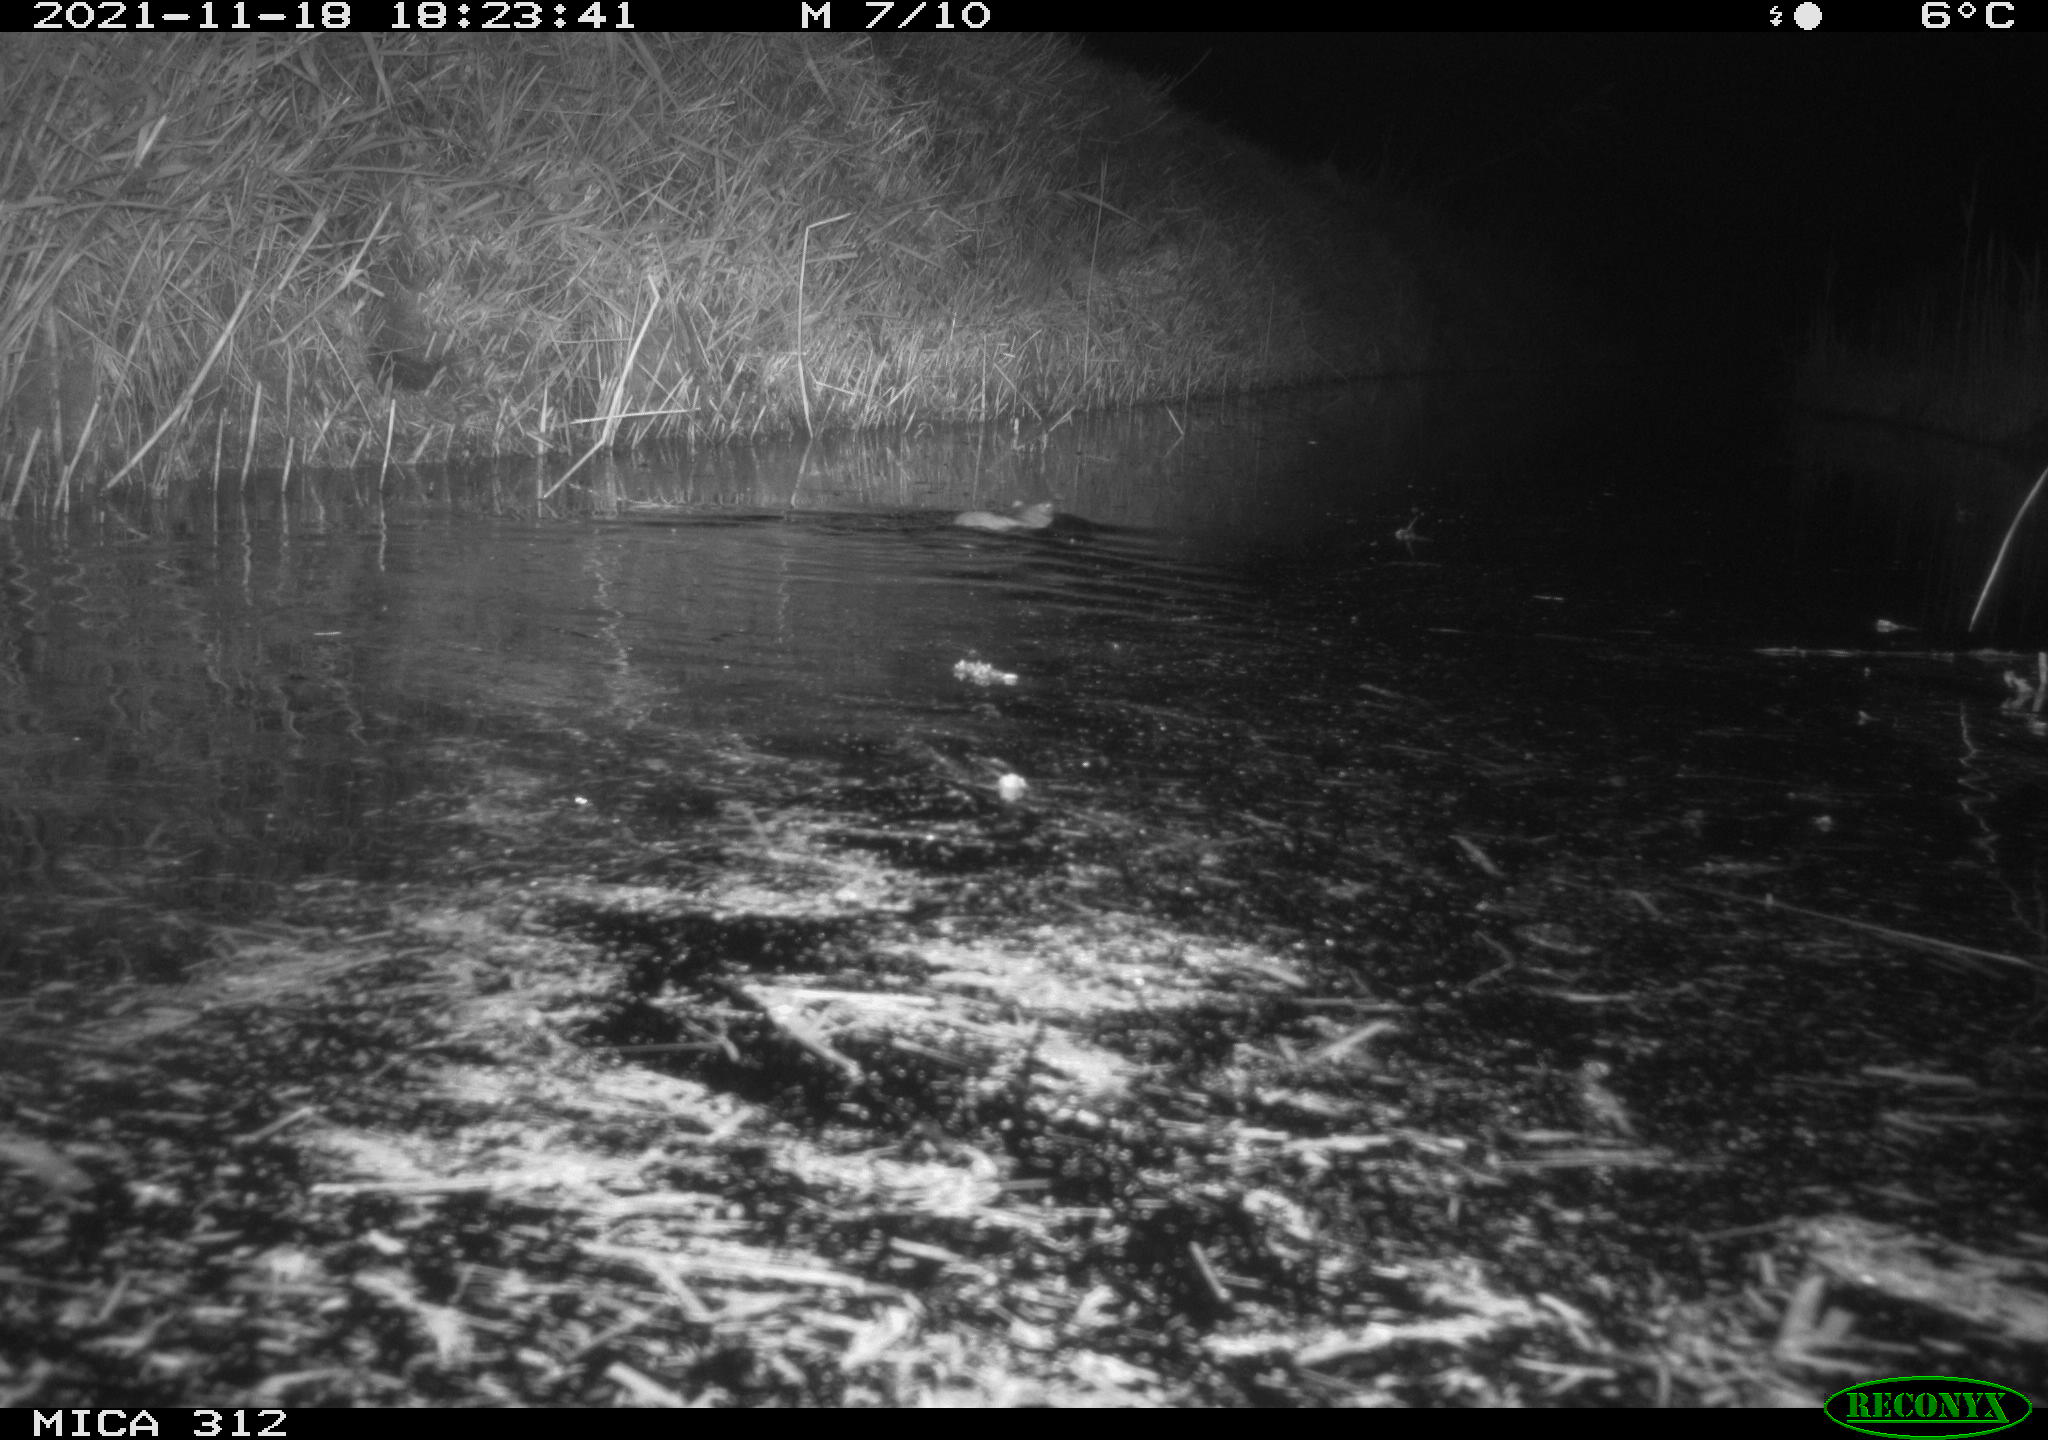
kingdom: Animalia
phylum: Chordata
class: Mammalia
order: Rodentia
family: Muridae
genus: Rattus
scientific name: Rattus norvegicus
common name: Brown rat
